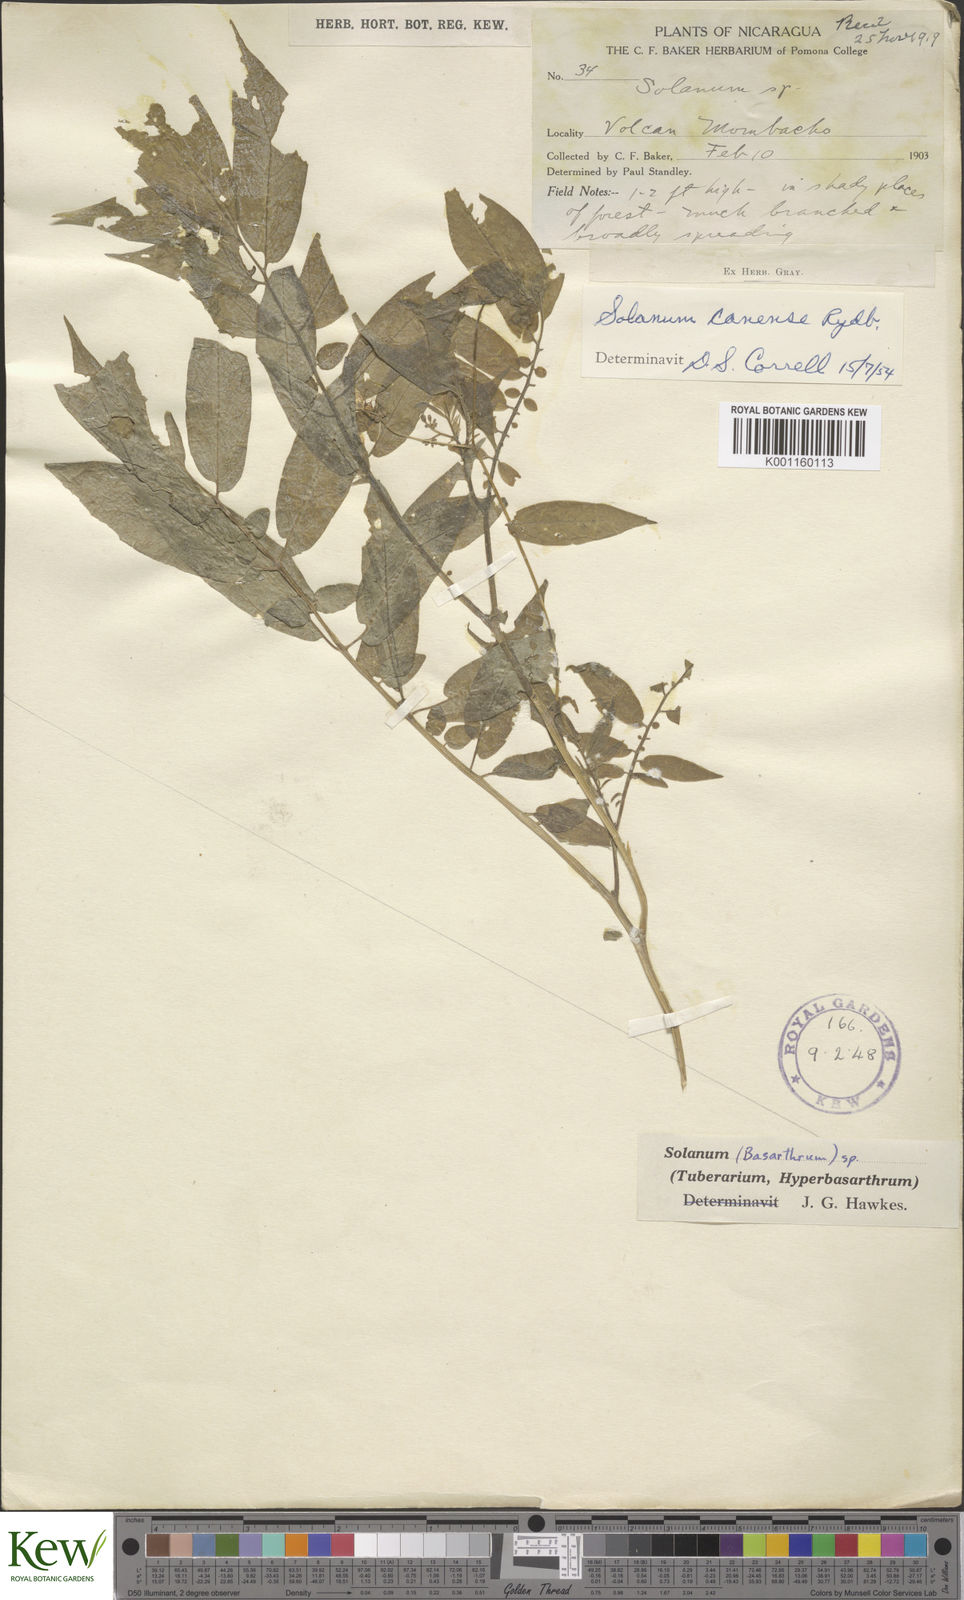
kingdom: Plantae
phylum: Tracheophyta
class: Magnoliopsida
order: Solanales
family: Solanaceae
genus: Solanum
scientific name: Solanum canense
